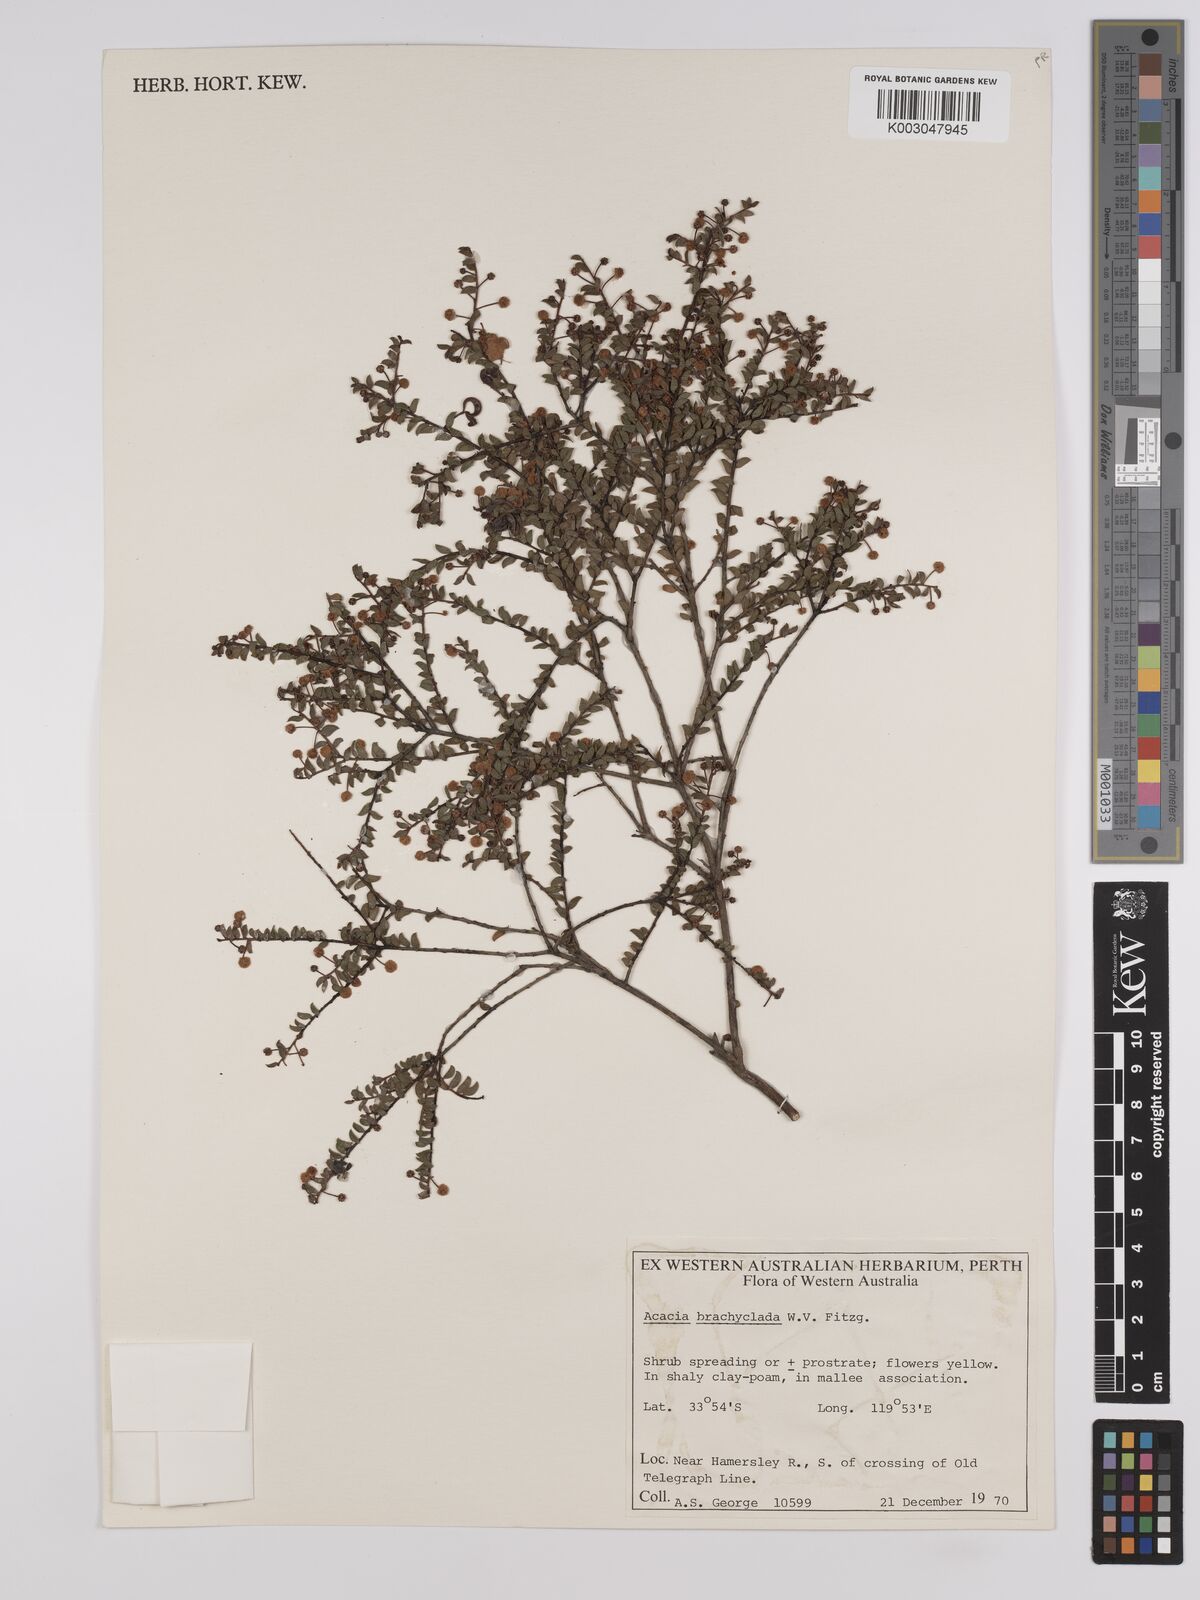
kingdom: Plantae
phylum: Tracheophyta
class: Magnoliopsida
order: Fabales
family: Fabaceae
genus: Acacia
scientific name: Acacia brachyclada
